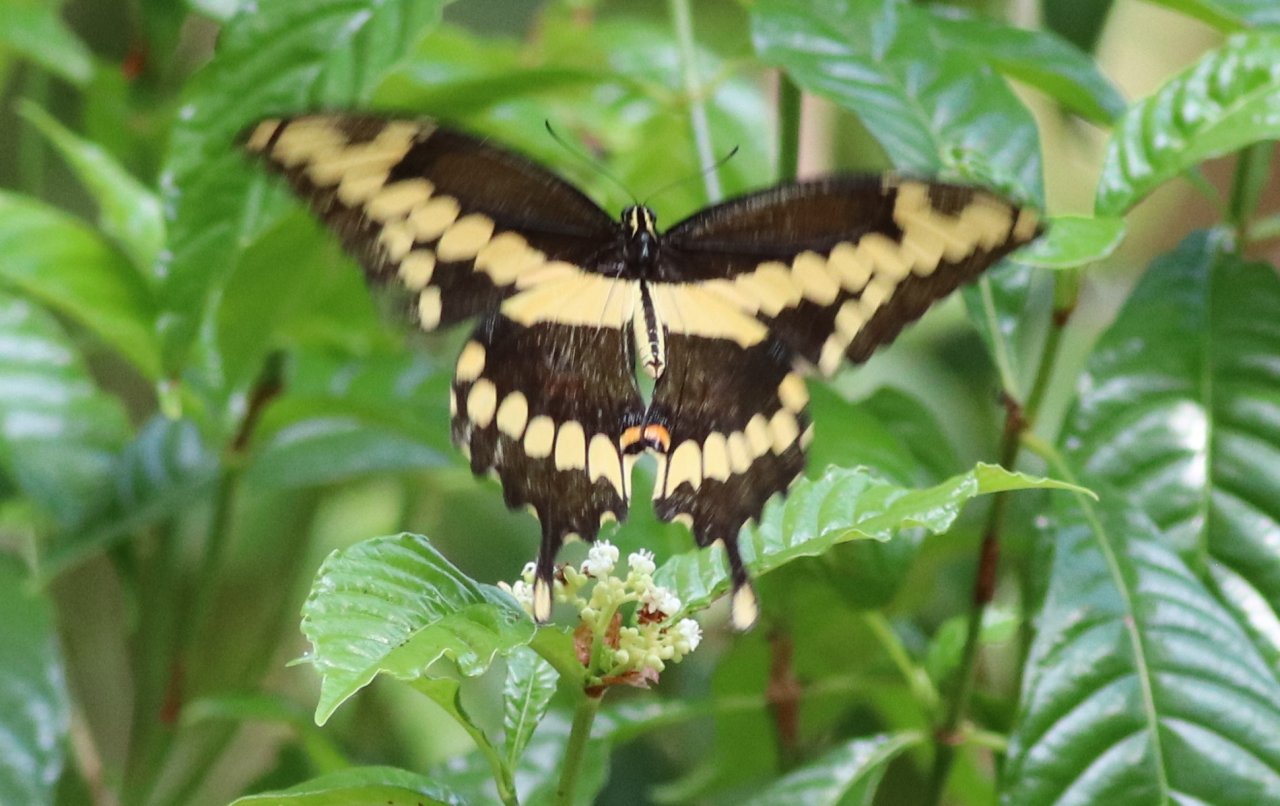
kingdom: Animalia
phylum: Arthropoda
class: Insecta
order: Lepidoptera
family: Papilionidae
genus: Papilio
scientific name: Papilio cresphontes
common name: Eastern Giant Swallowtail
